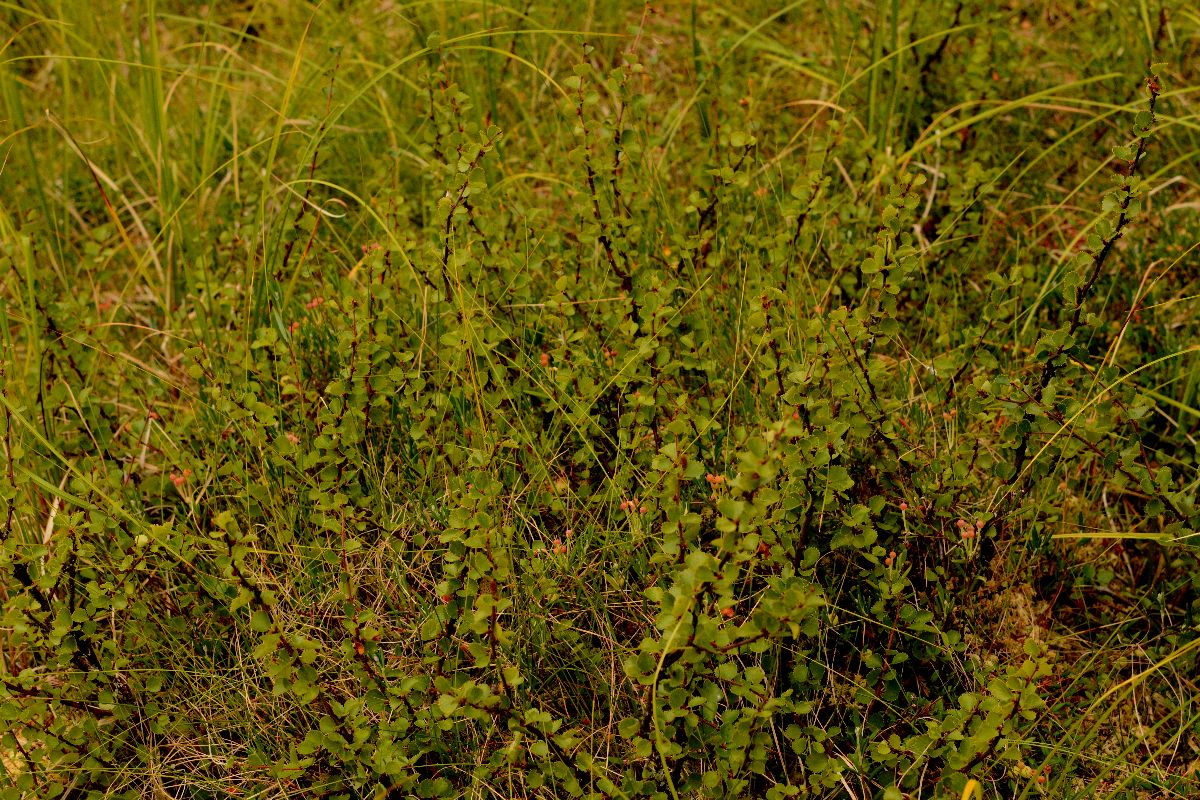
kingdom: Plantae
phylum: Tracheophyta
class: Magnoliopsida
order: Fagales
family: Betulaceae
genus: Betula
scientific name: Betula nana
